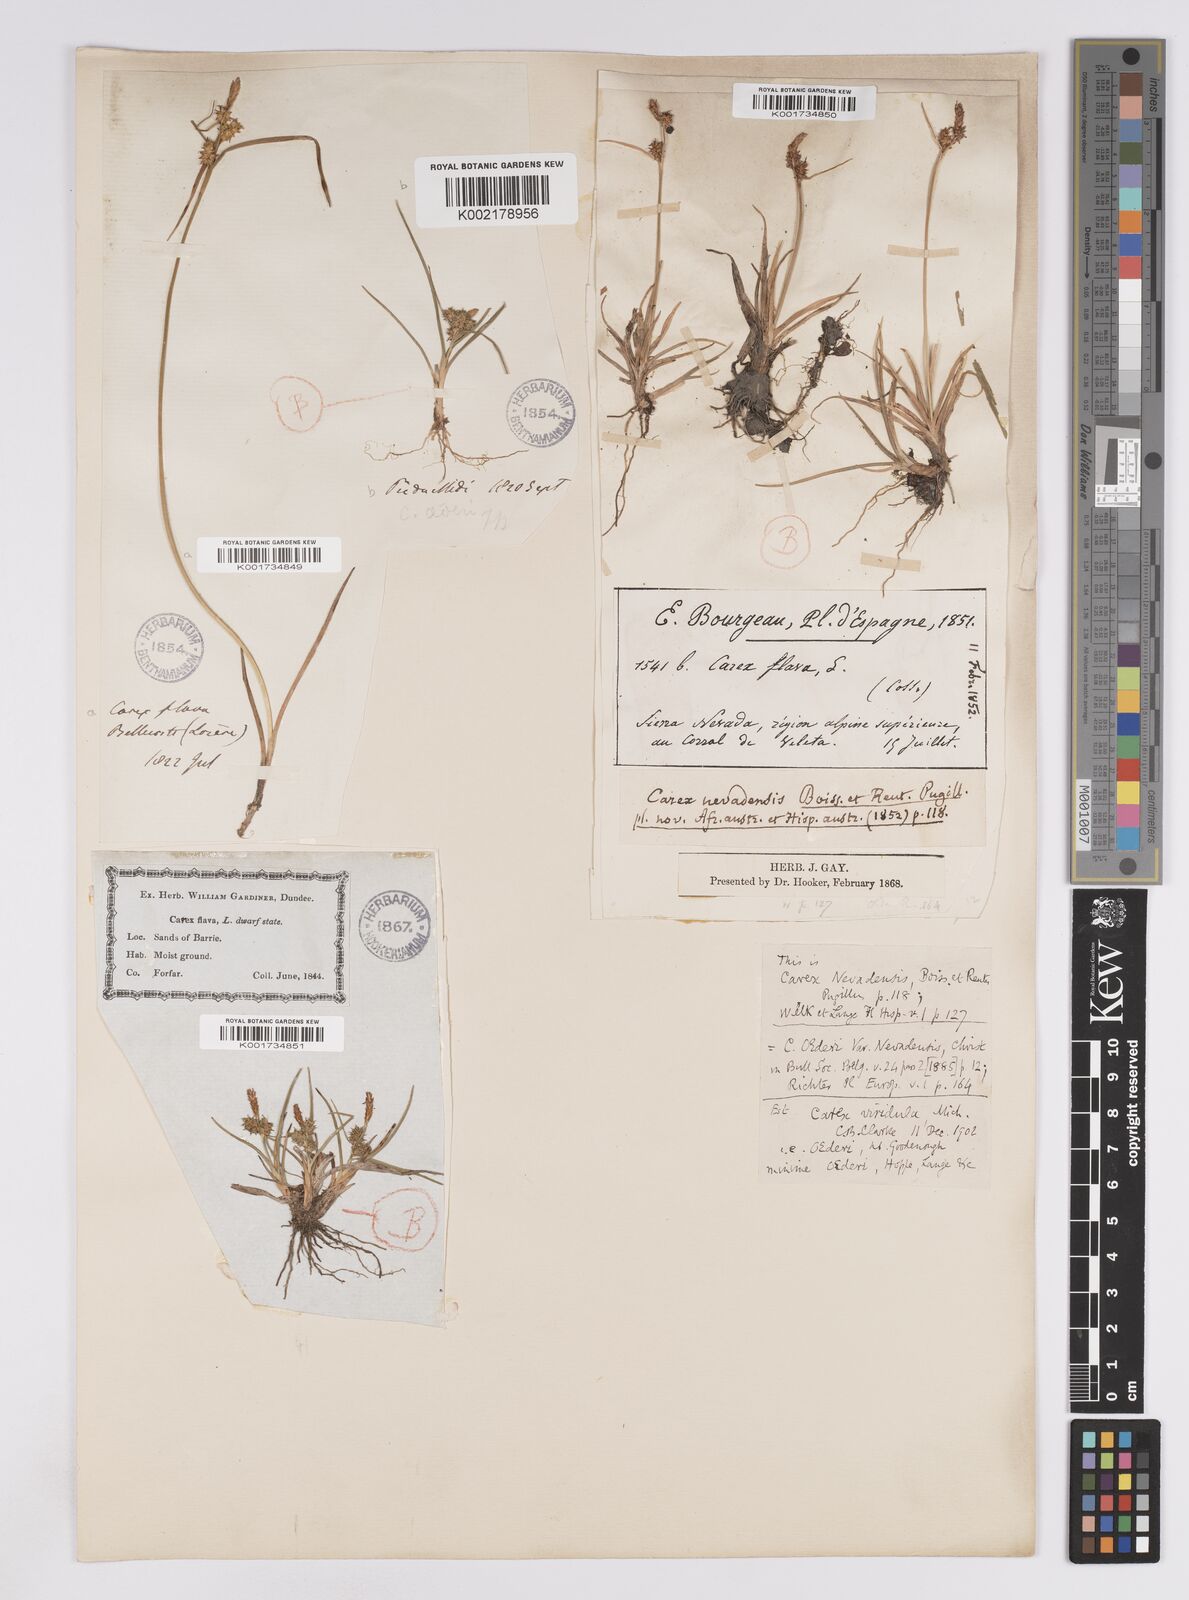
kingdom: Plantae
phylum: Tracheophyta
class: Liliopsida
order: Poales
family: Cyperaceae
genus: Carex
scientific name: Carex lepidocarpa
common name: Long-stalked yellow-sedge
